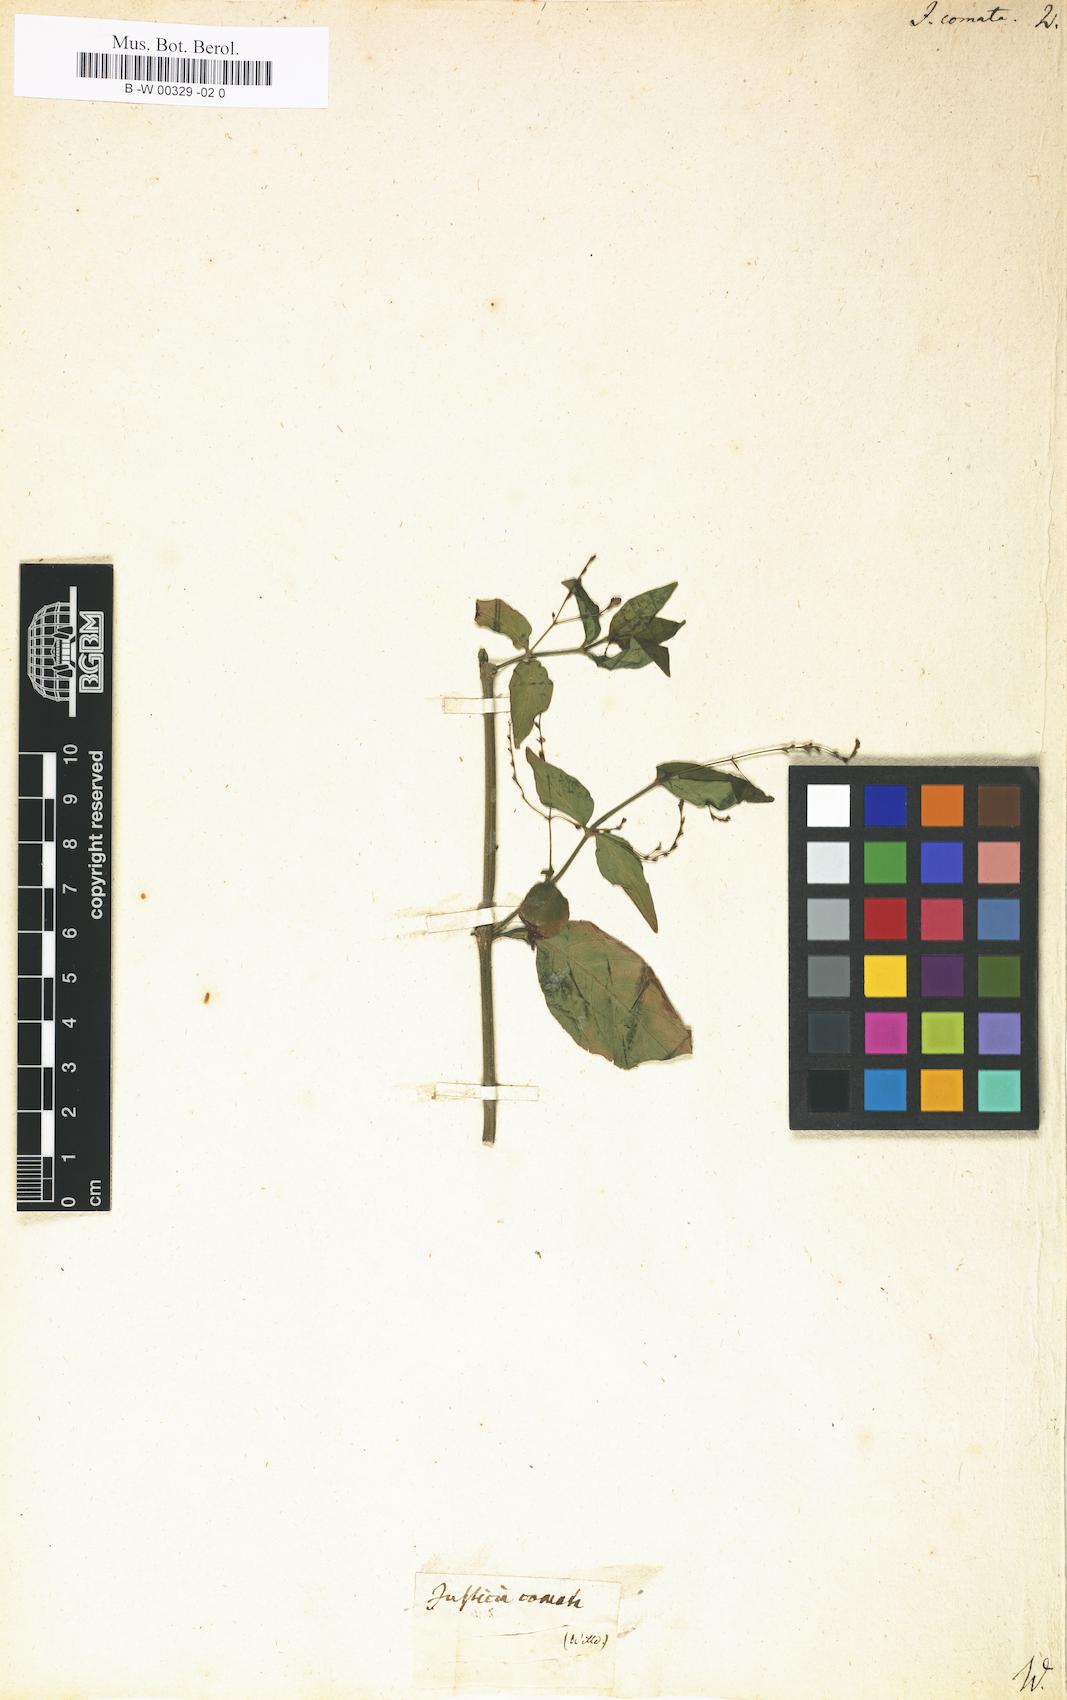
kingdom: Plantae
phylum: Tracheophyta
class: Magnoliopsida
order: Lamiales
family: Acanthaceae
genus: Dianthera
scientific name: Dianthera comata
